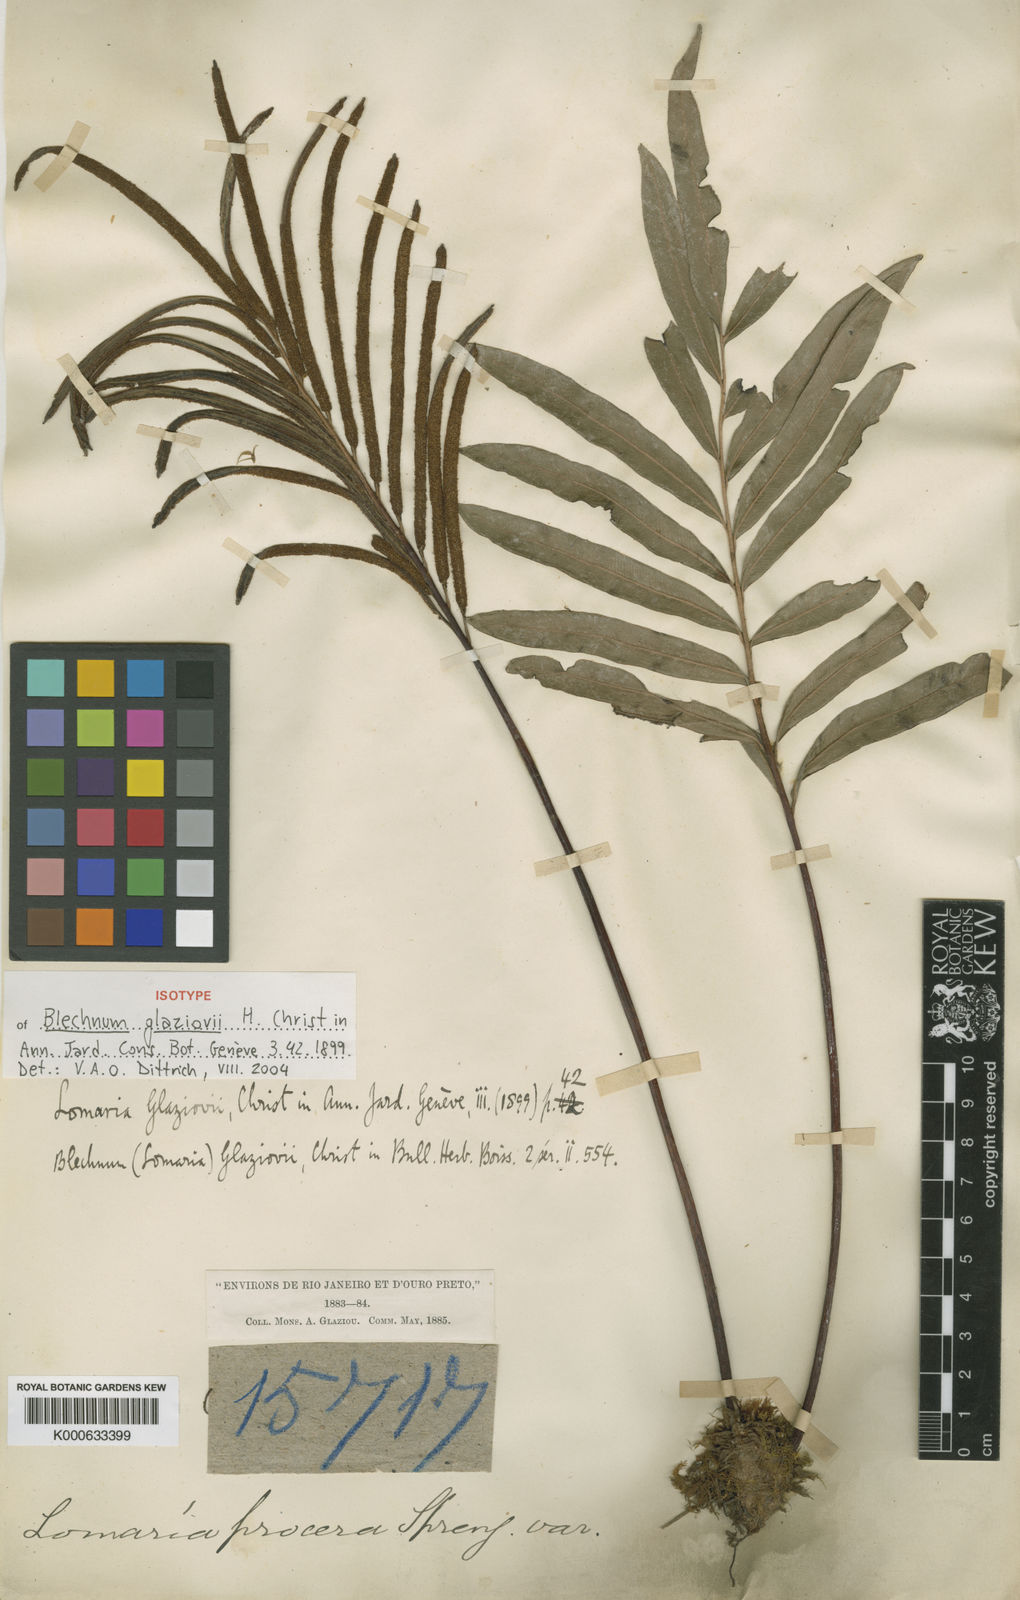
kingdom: Plantae
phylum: Tracheophyta
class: Polypodiopsida
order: Polypodiales
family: Blechnaceae
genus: Parablechnum
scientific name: Parablechnum glaziovii
